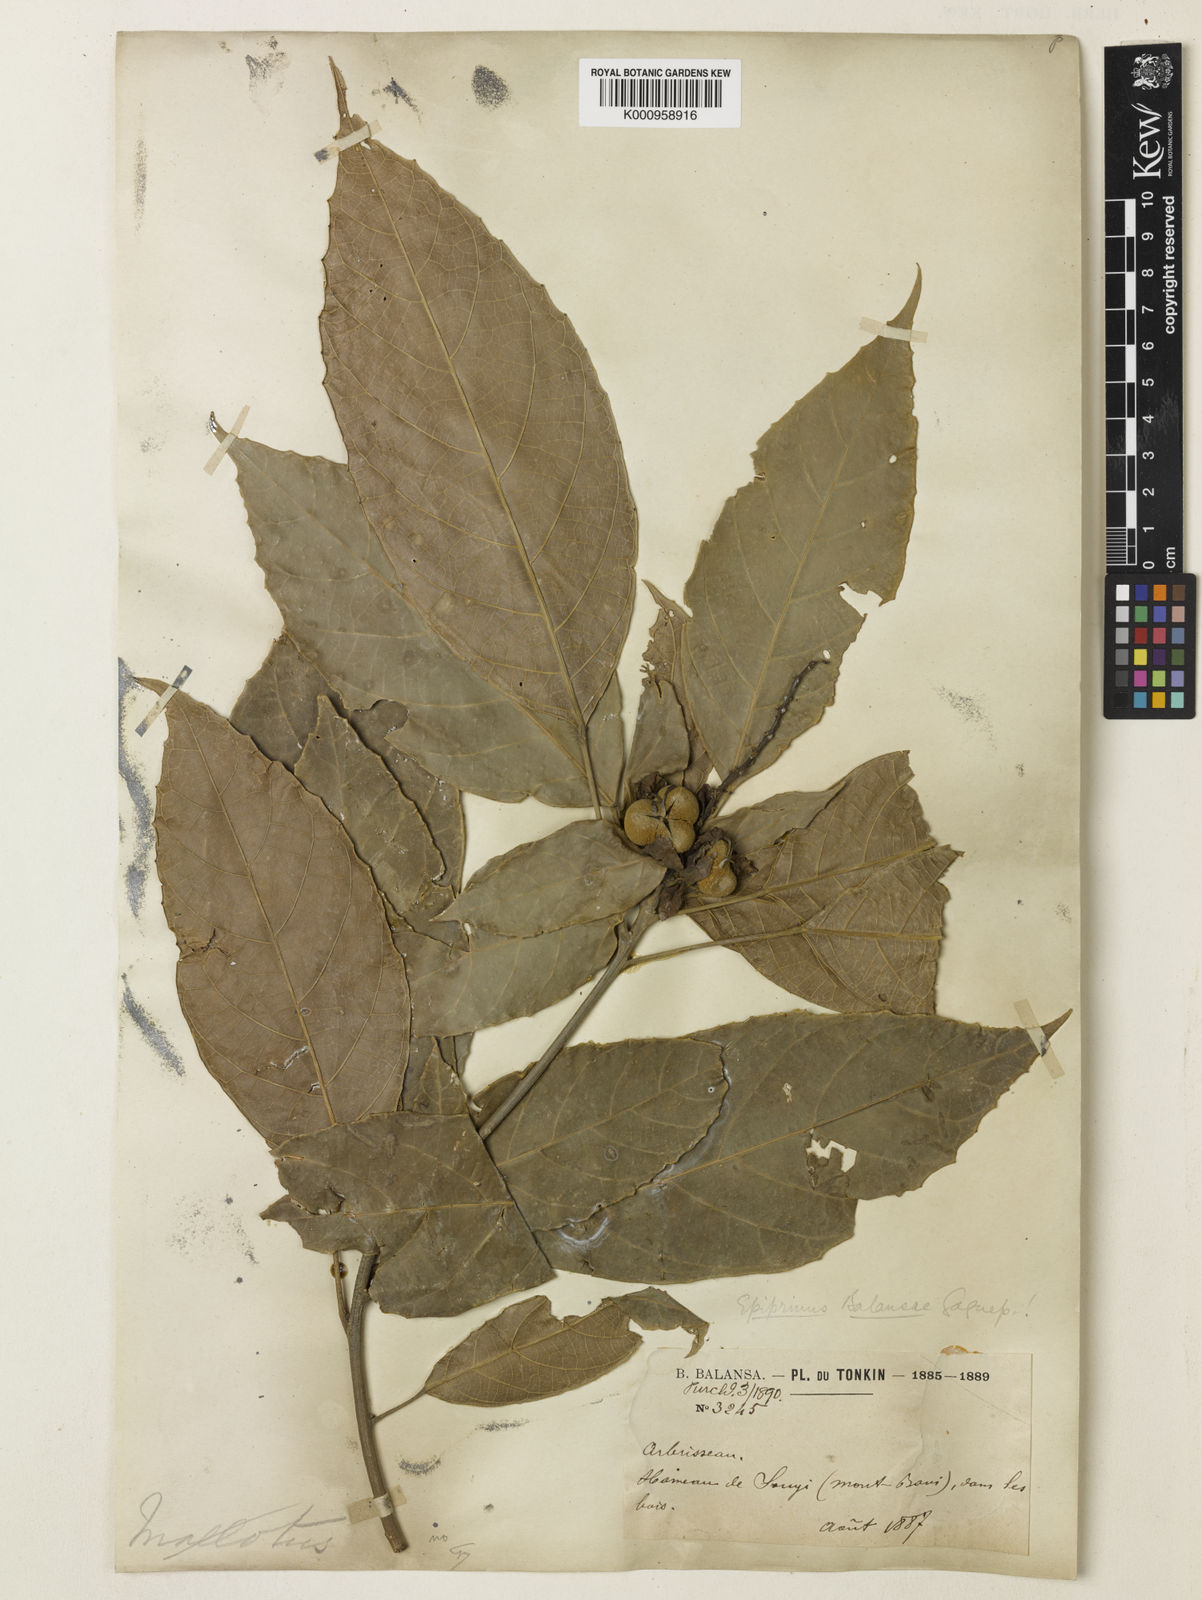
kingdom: Plantae
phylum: Tracheophyta
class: Magnoliopsida
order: Malpighiales
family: Euphorbiaceae
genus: Epiprinus
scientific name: Epiprinus balansae
